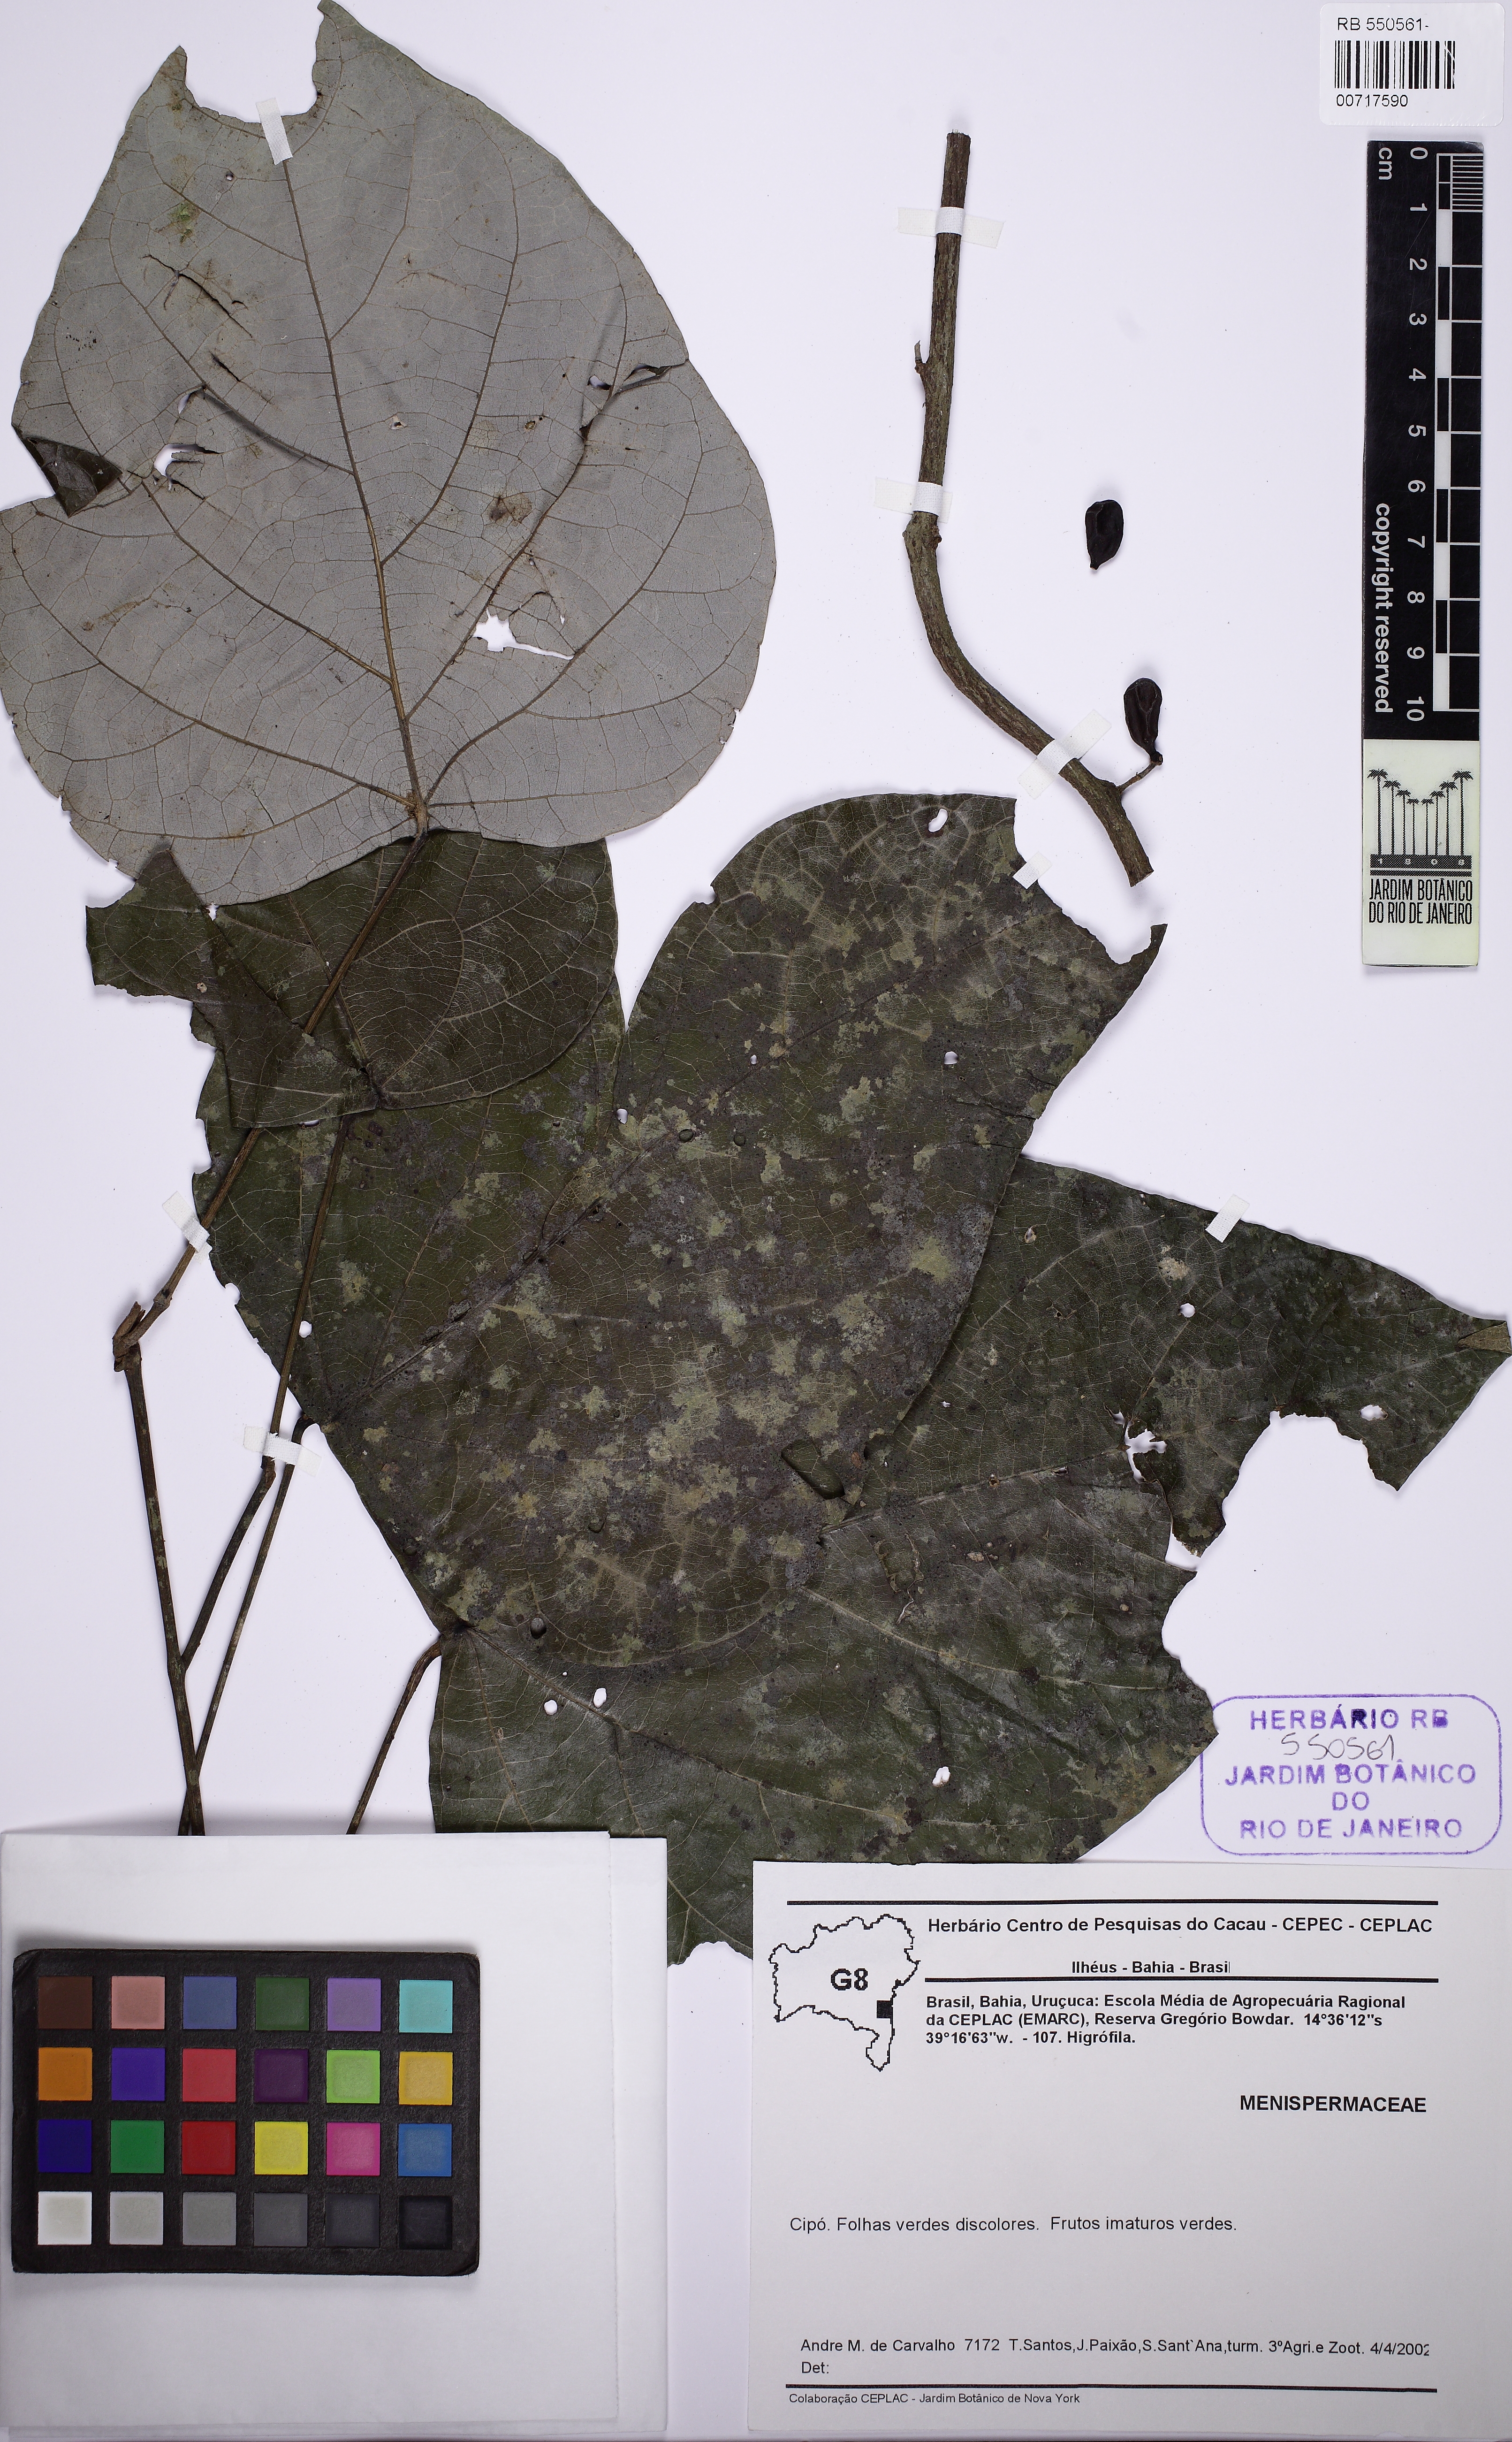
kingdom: Plantae
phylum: Tracheophyta
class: Magnoliopsida
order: Ranunculales
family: Menispermaceae
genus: Chondrodendron
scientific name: Chondrodendron platyphyllum
